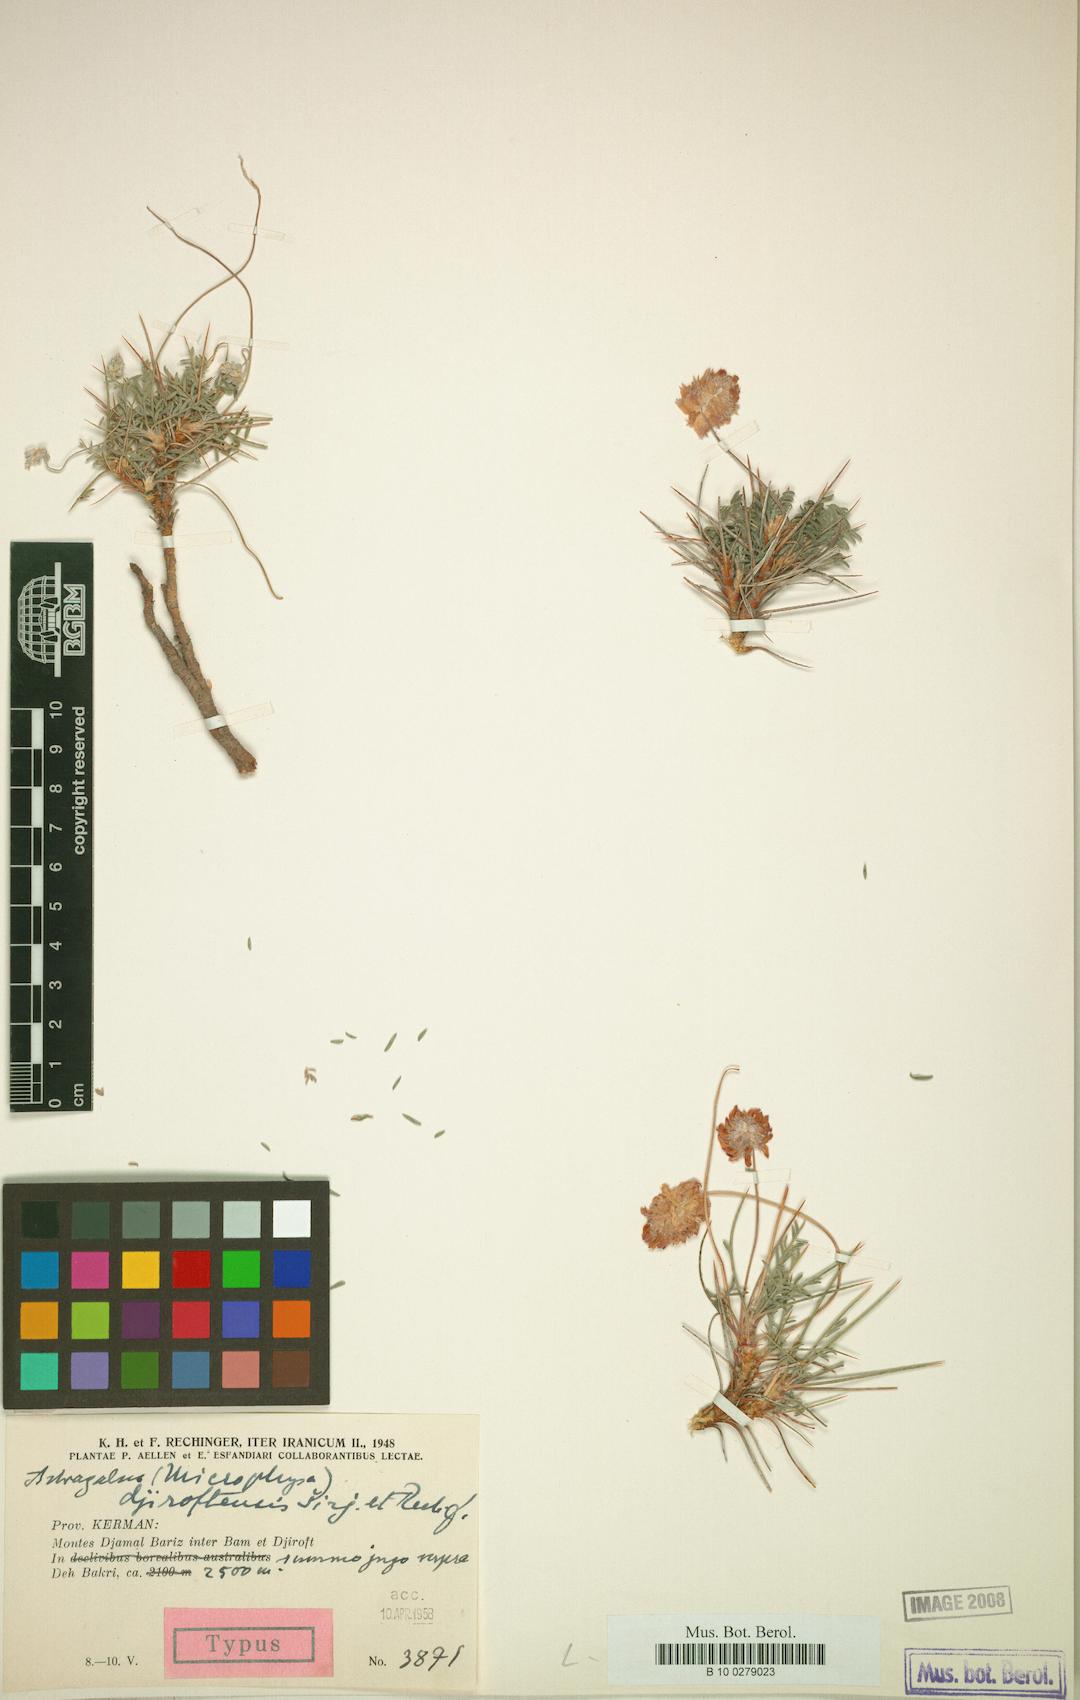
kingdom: Plantae
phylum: Tracheophyta
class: Magnoliopsida
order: Fabales
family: Fabaceae
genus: Astragalus
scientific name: Astragalus cephalanthus
